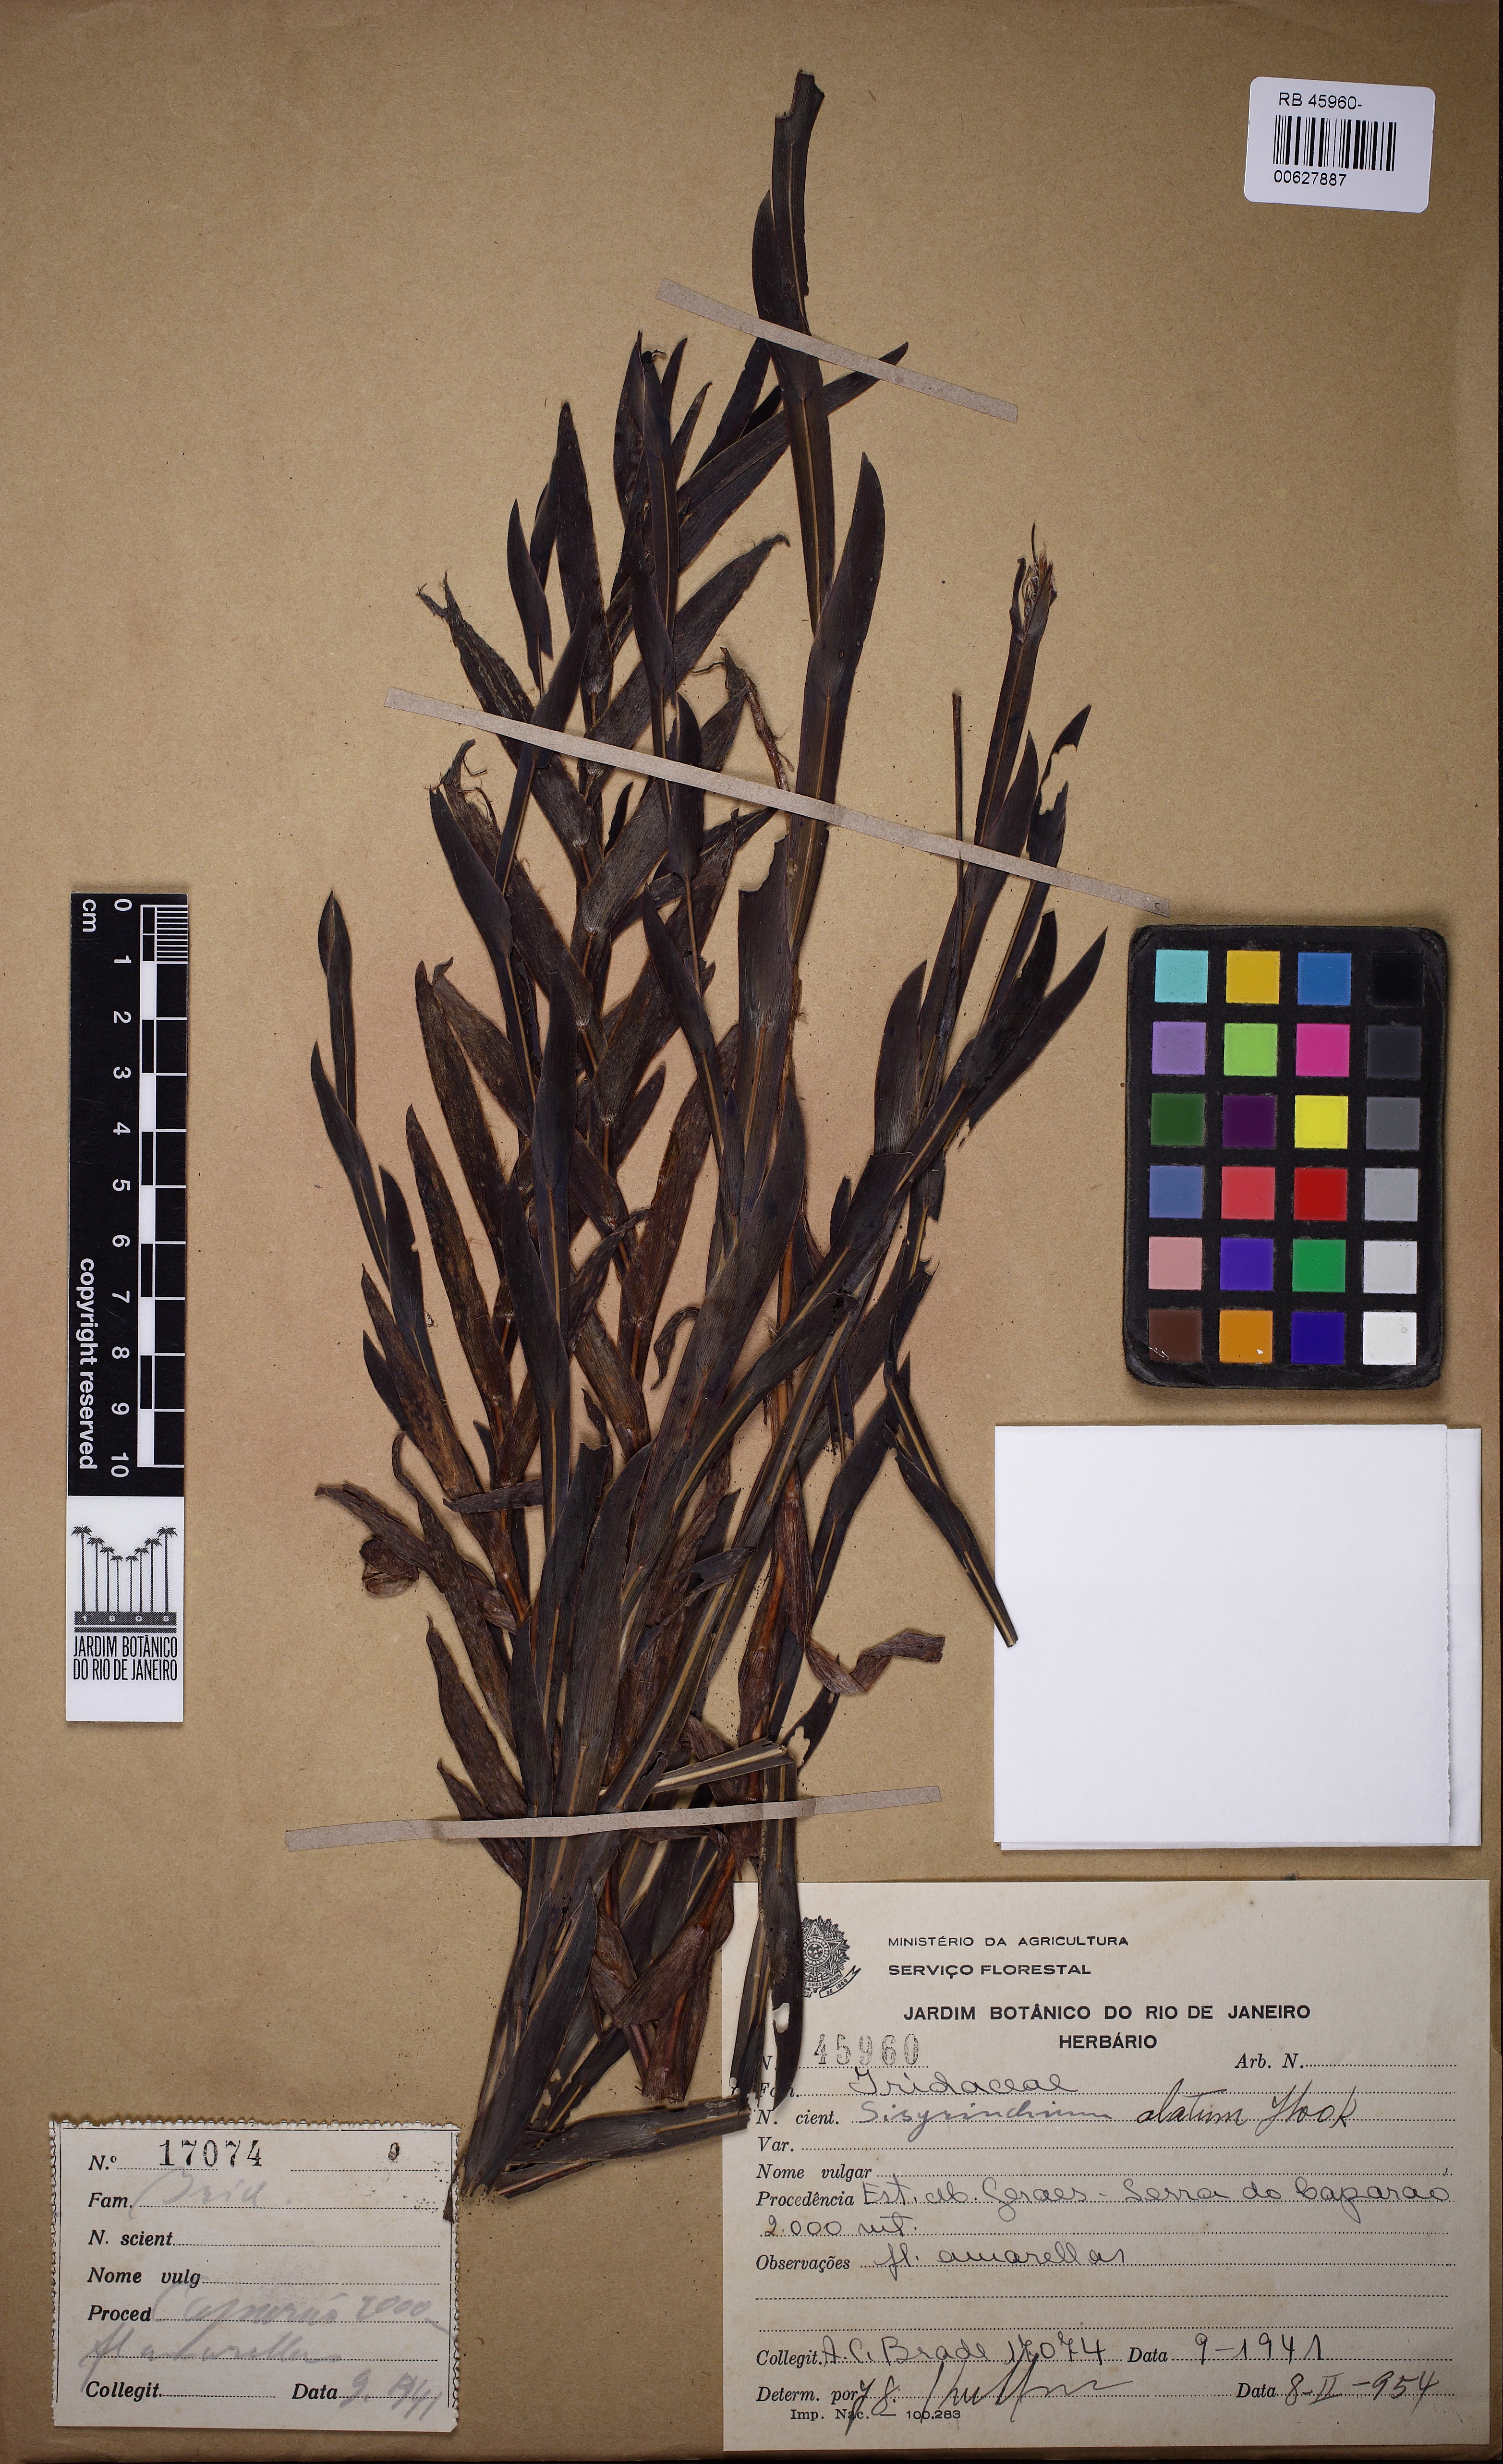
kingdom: Plantae
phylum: Tracheophyta
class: Liliopsida
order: Asparagales
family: Iridaceae
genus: Sisyrinchium
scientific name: Sisyrinchium vaginatum
